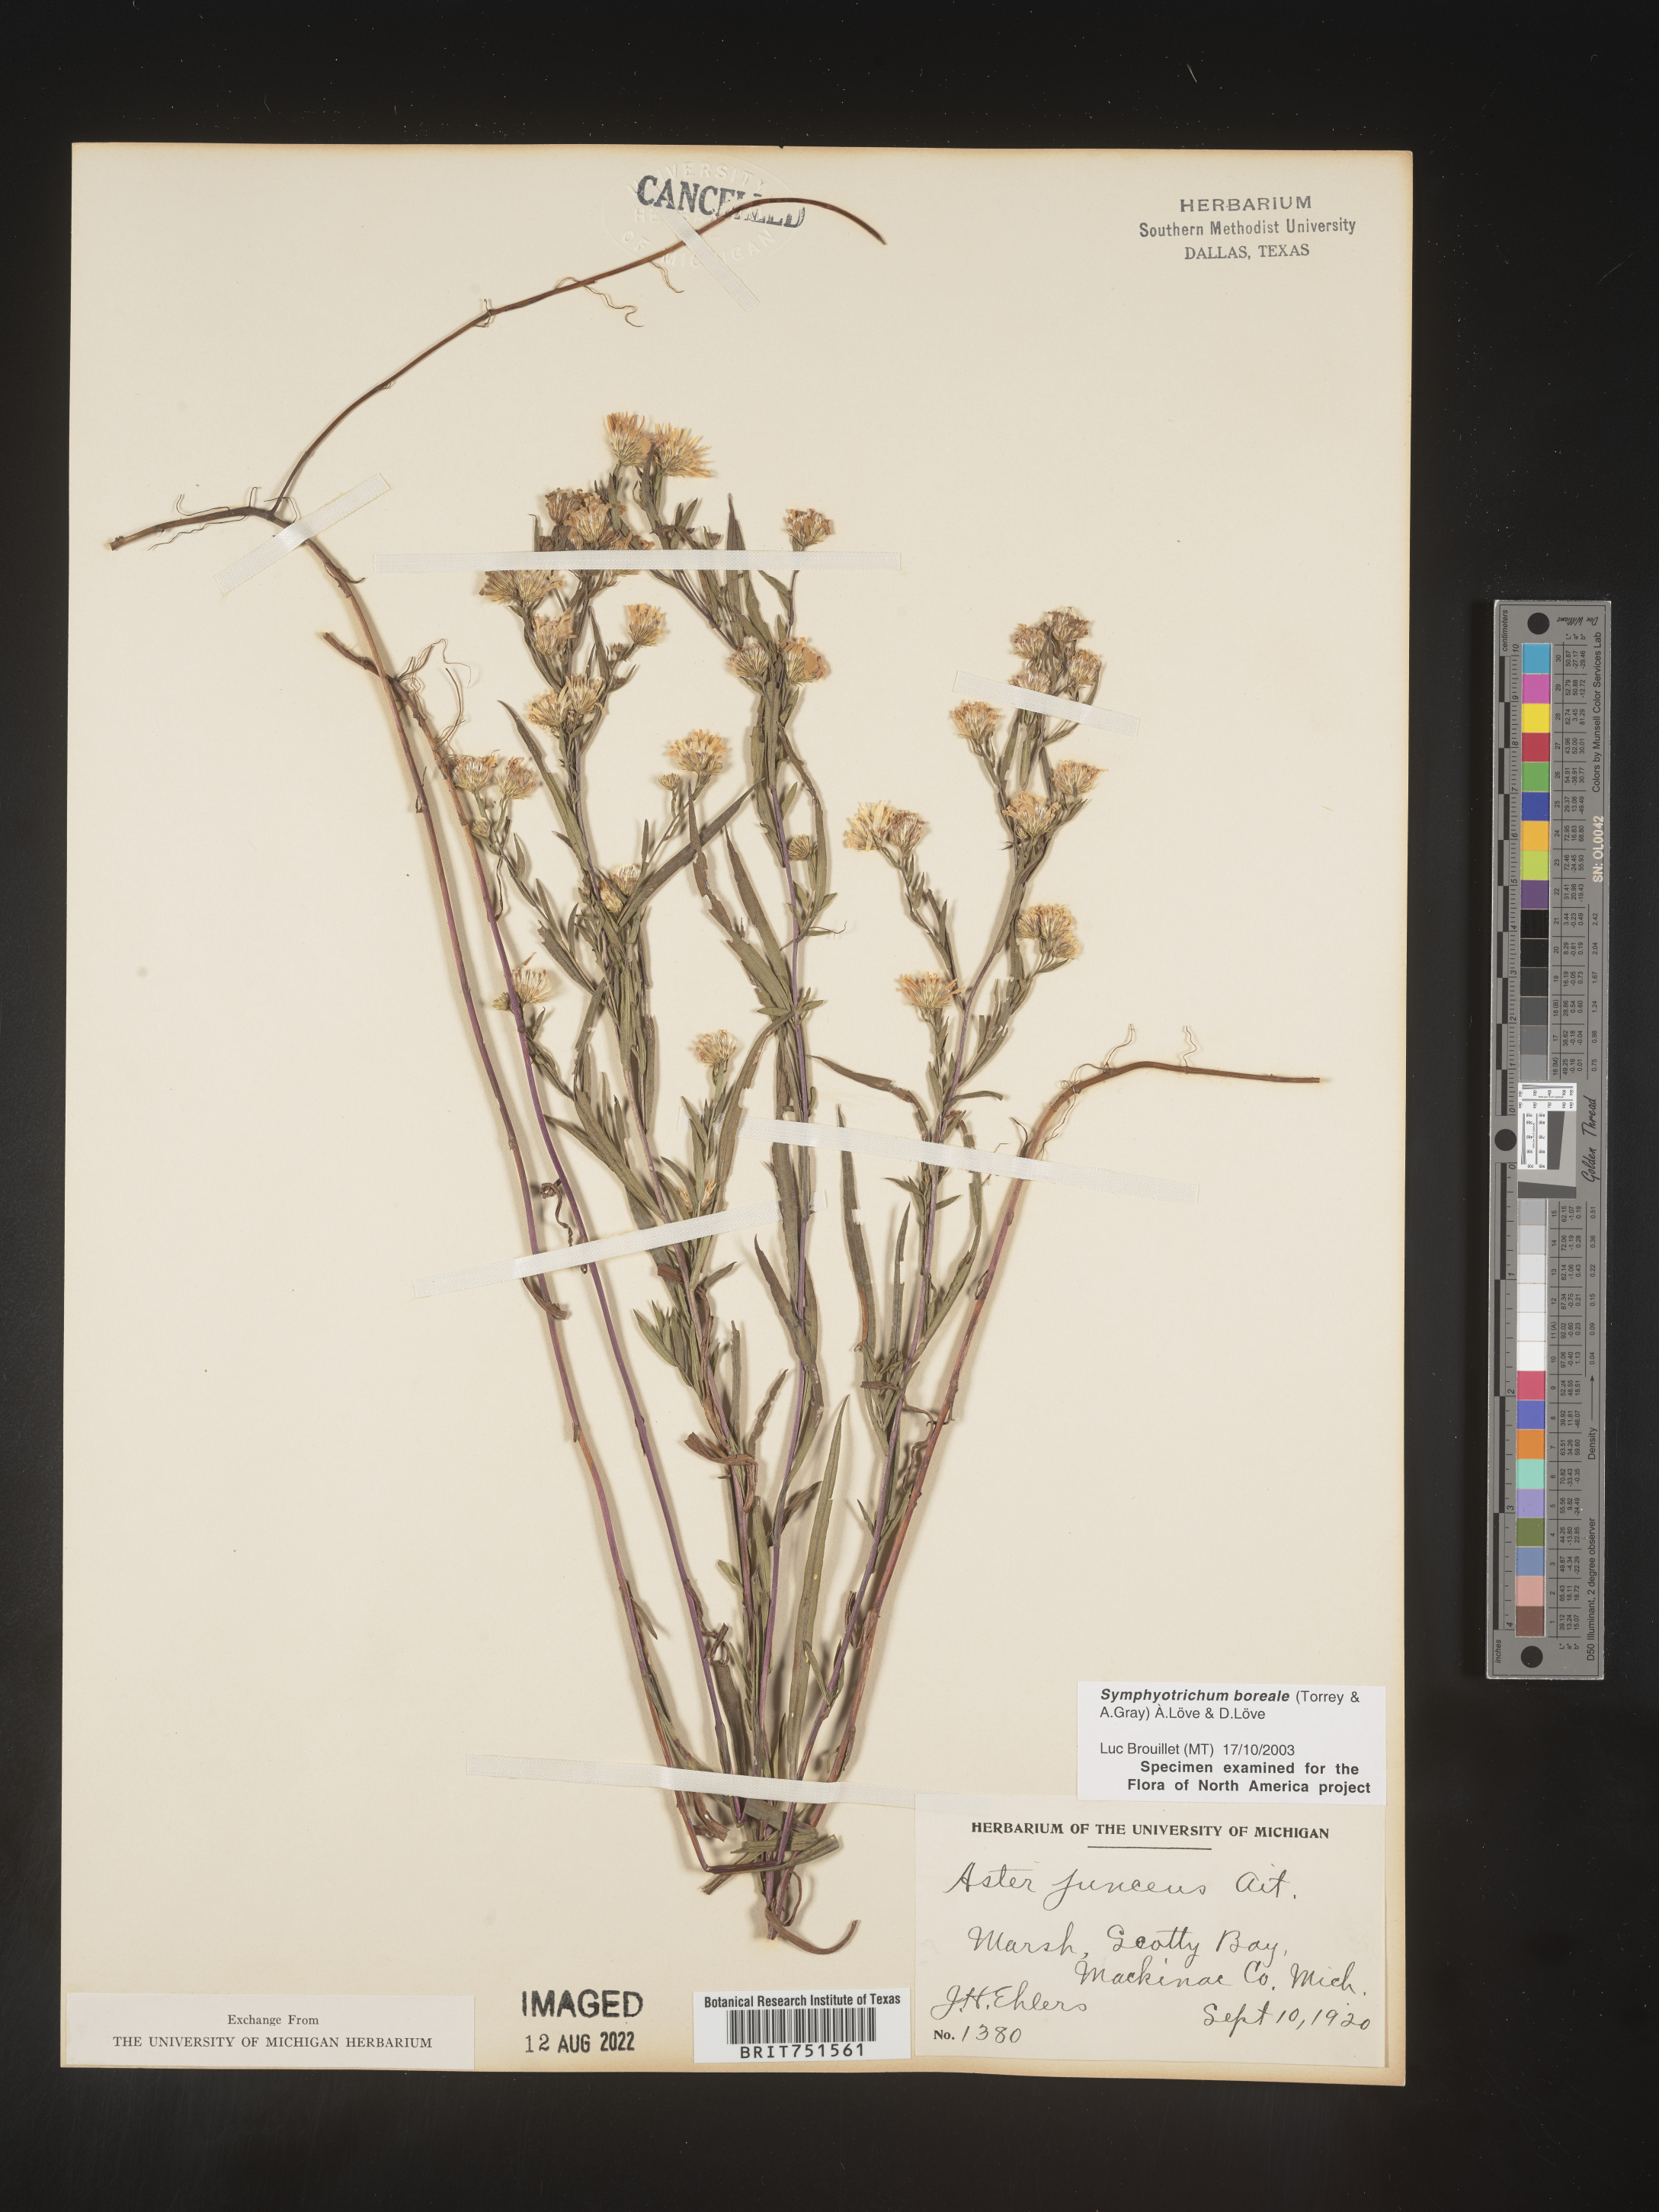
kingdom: Plantae
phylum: Tracheophyta
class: Magnoliopsida
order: Asterales
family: Asteraceae
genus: Symphyotrichum
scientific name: Symphyotrichum boreale
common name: Northern bog aster
